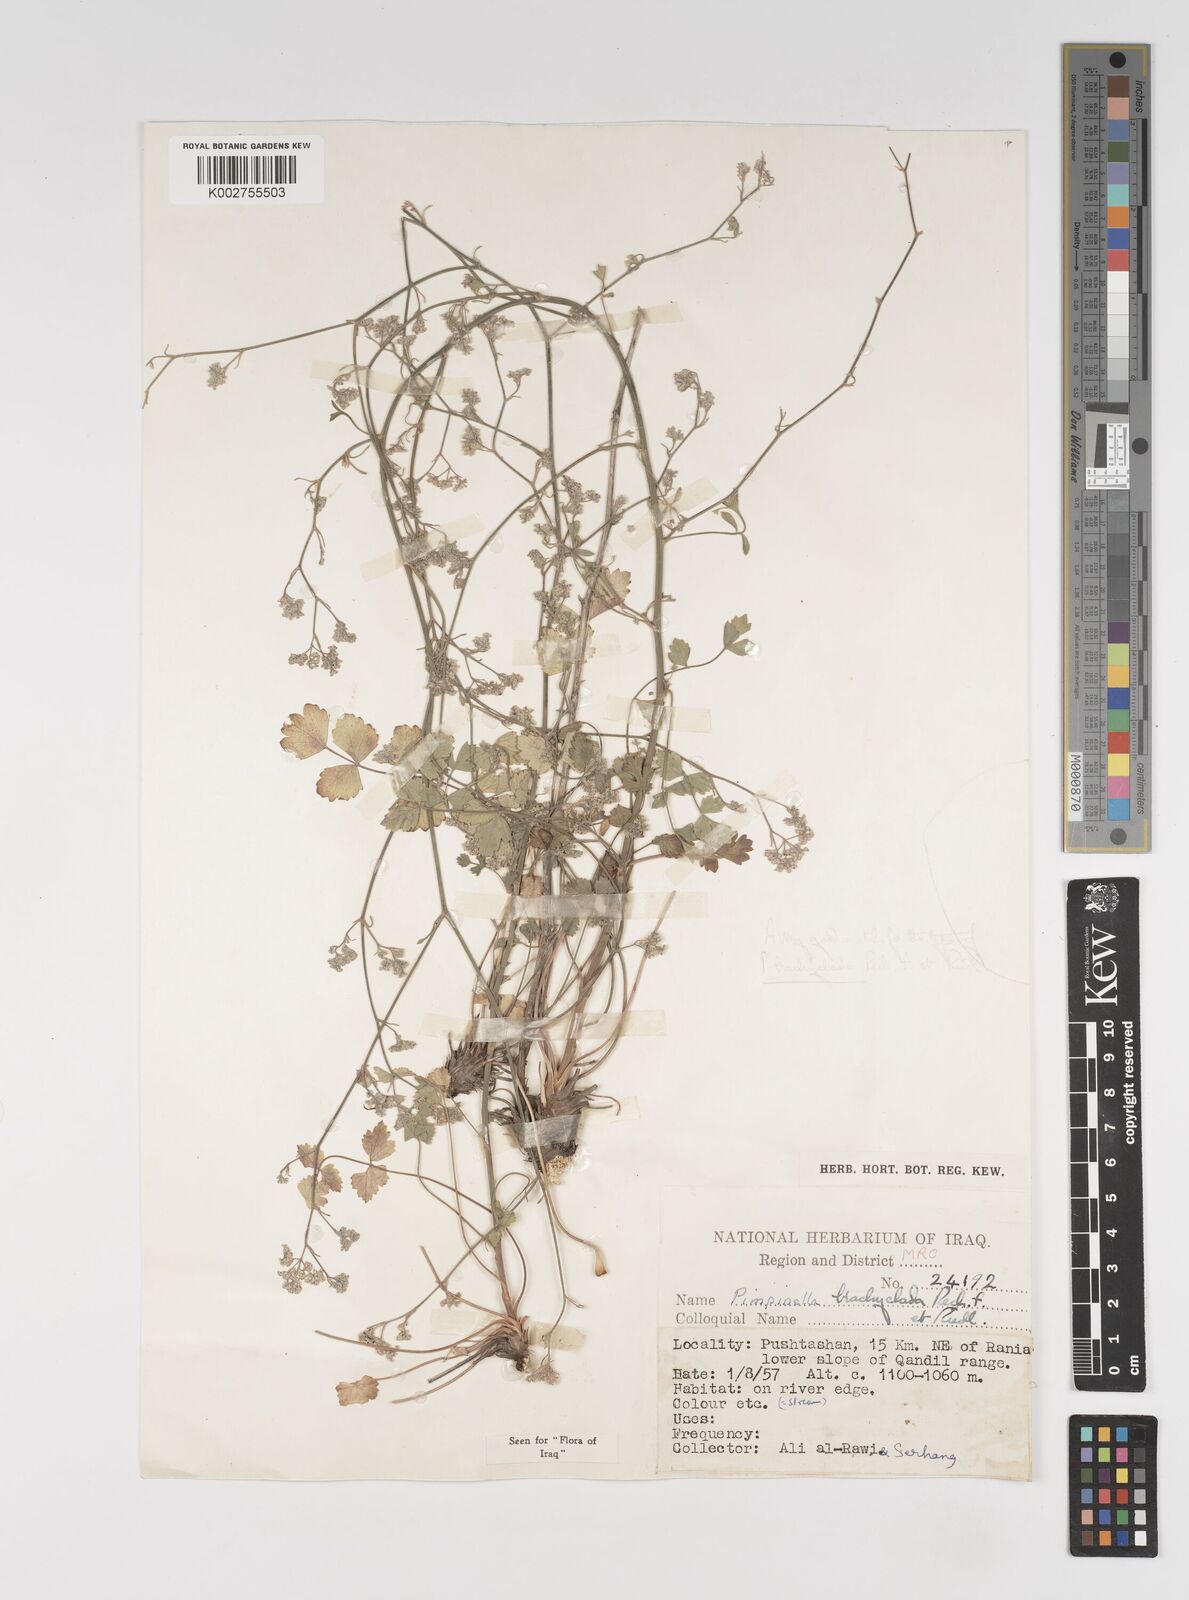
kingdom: Plantae
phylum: Tracheophyta
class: Magnoliopsida
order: Apiales
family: Apiaceae
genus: Pimpinella
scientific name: Pimpinella brachyclada
